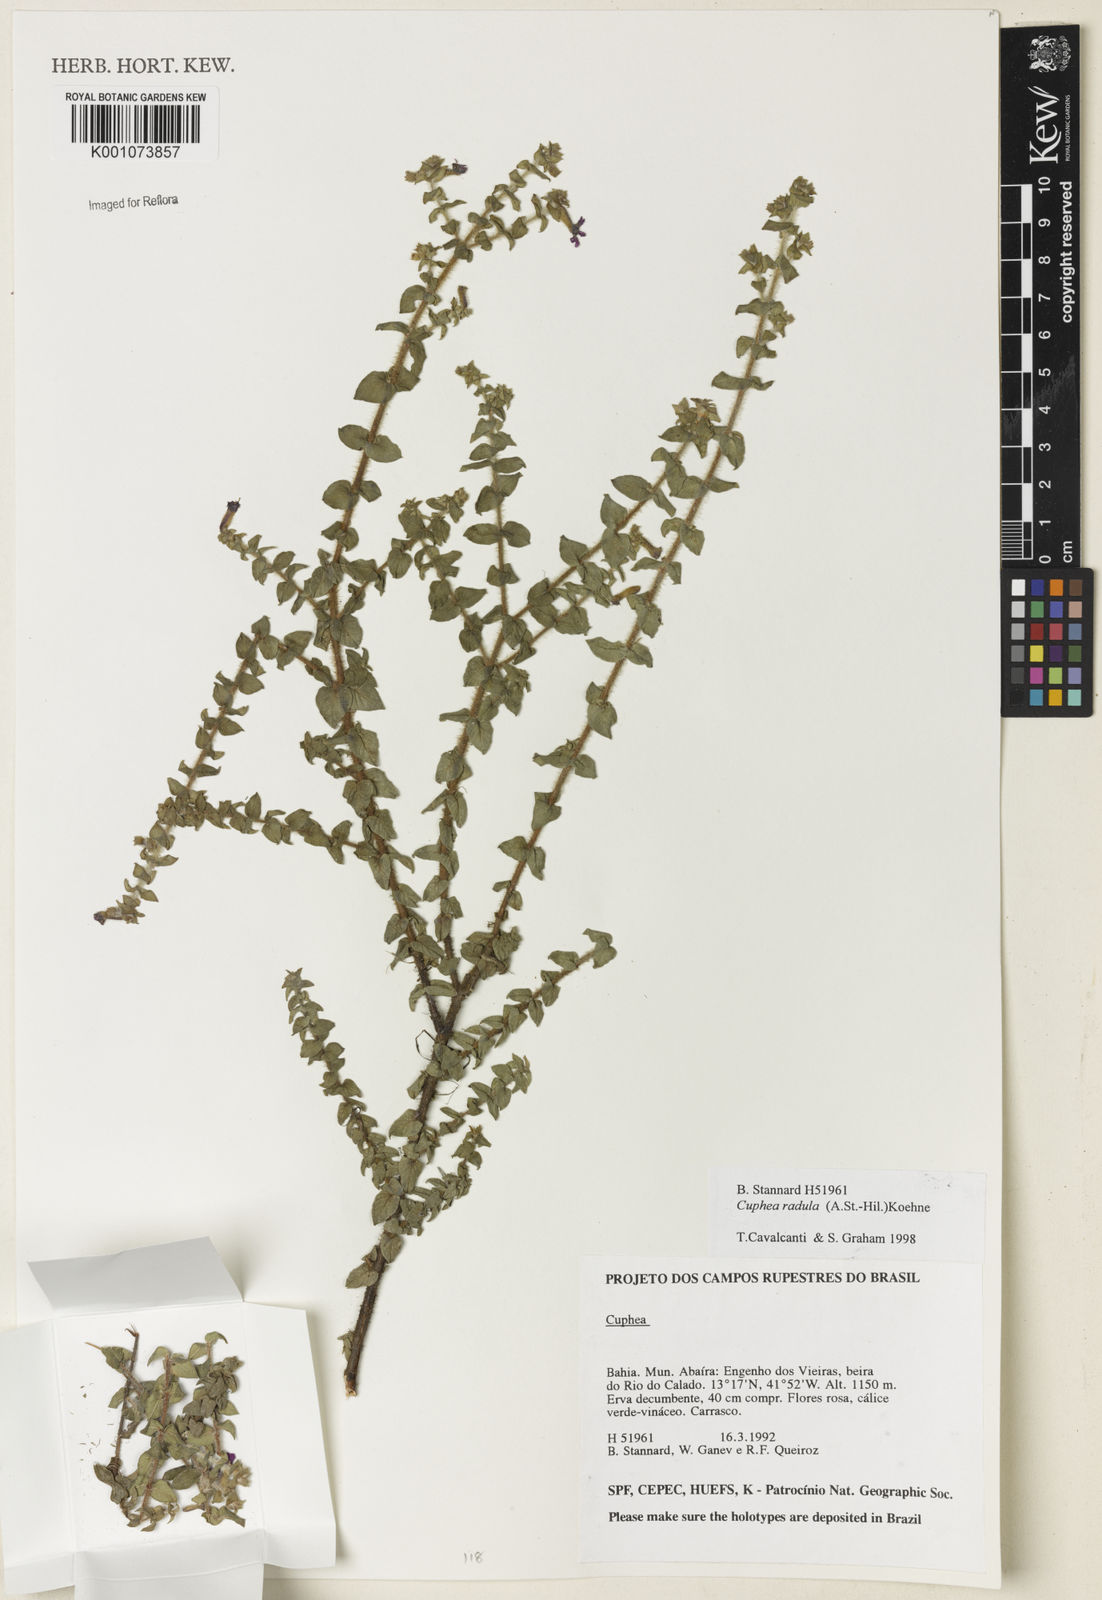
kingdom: Plantae
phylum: Tracheophyta
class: Magnoliopsida
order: Myrtales
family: Lythraceae
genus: Cuphea
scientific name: Cuphea antisyphilitica
